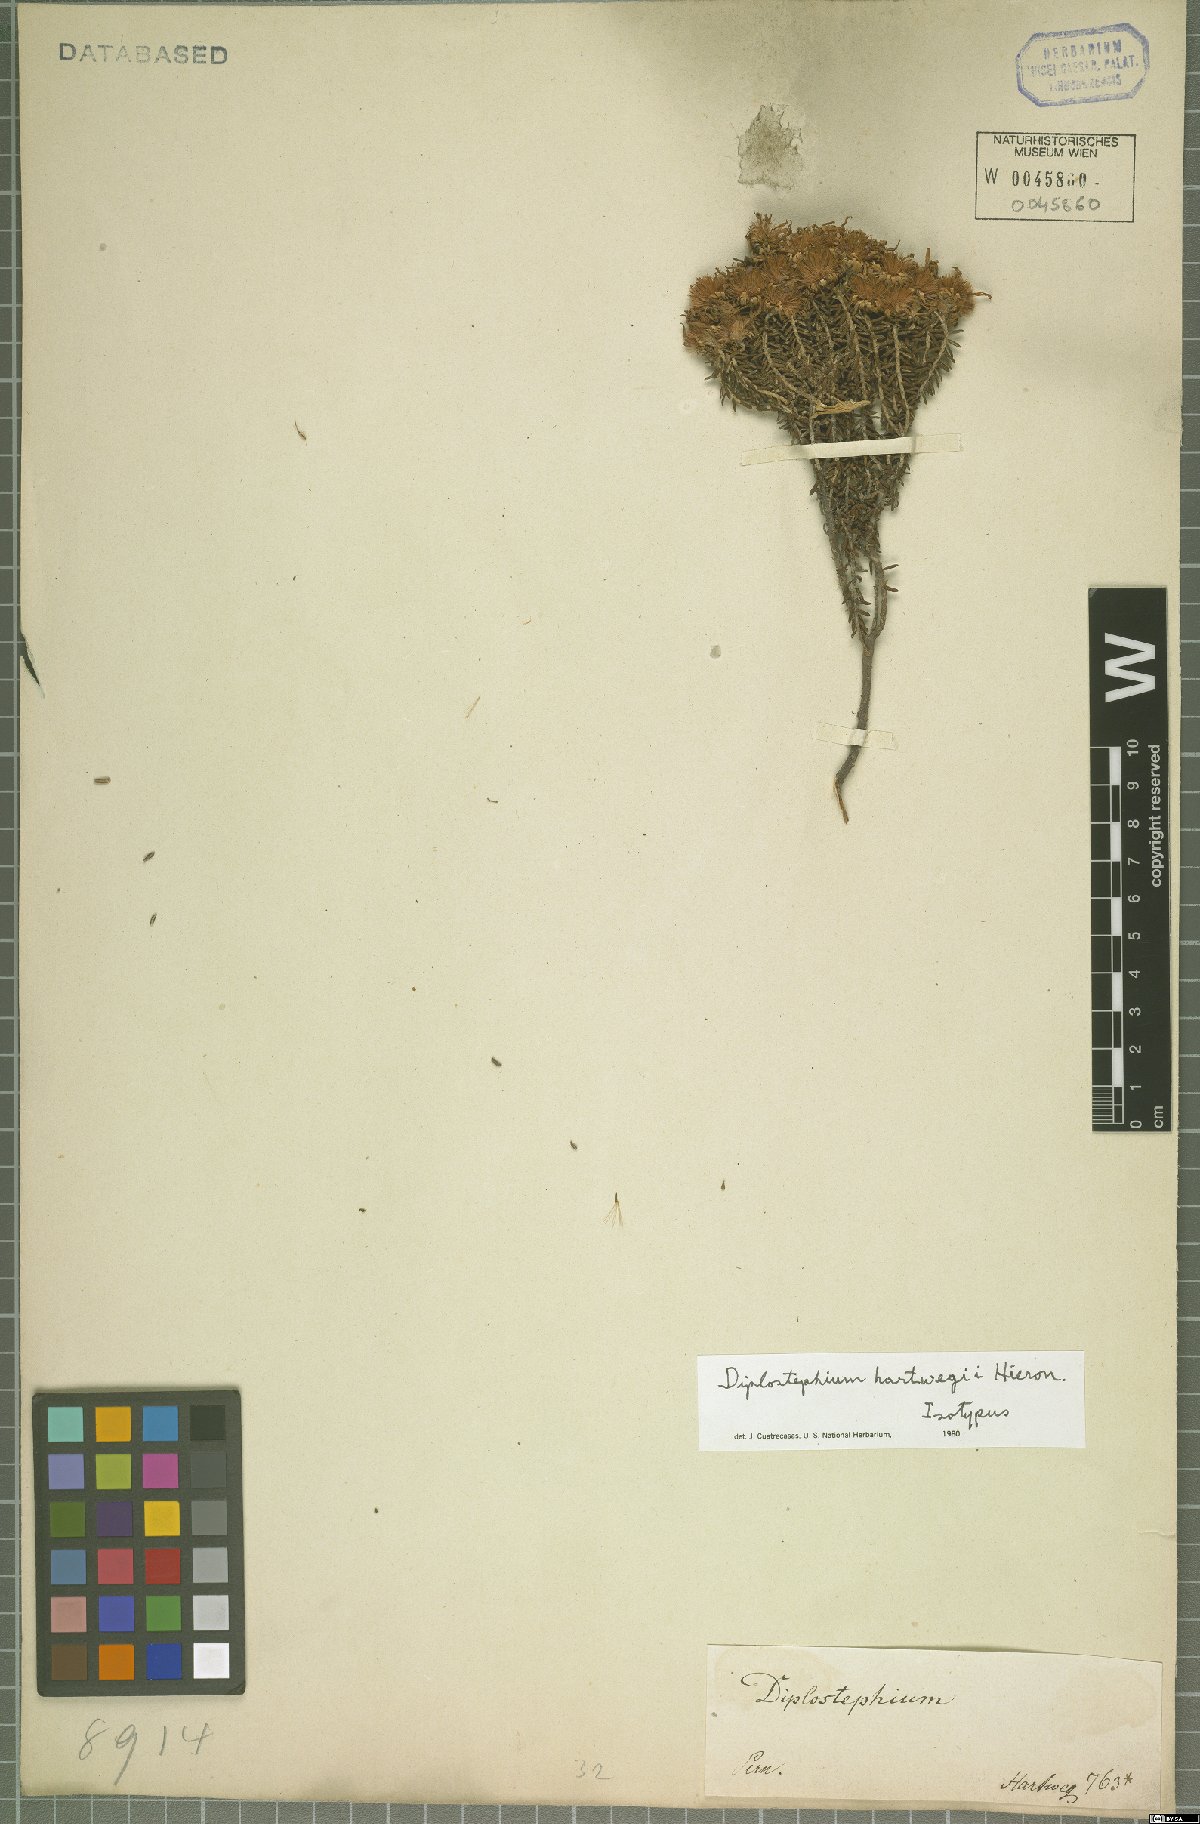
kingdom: Plantae
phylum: Tracheophyta
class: Magnoliopsida
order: Asterales
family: Asteraceae
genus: Diplostephium
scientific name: Diplostephium hartwegii
